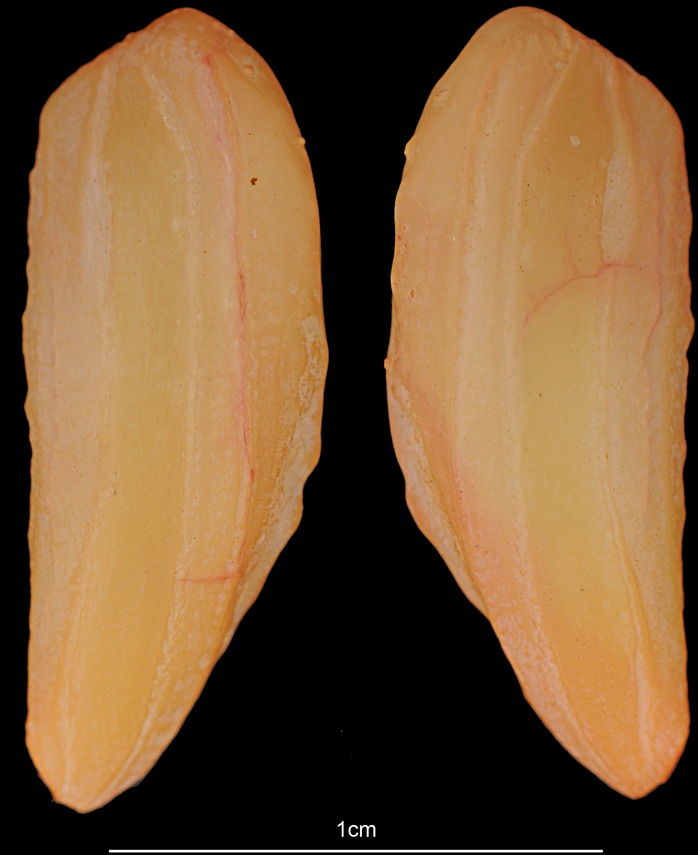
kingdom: Animalia
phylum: Chordata
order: Gadiformes
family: Phycidae
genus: Phycis
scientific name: Phycis blennoides
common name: Forked hake
